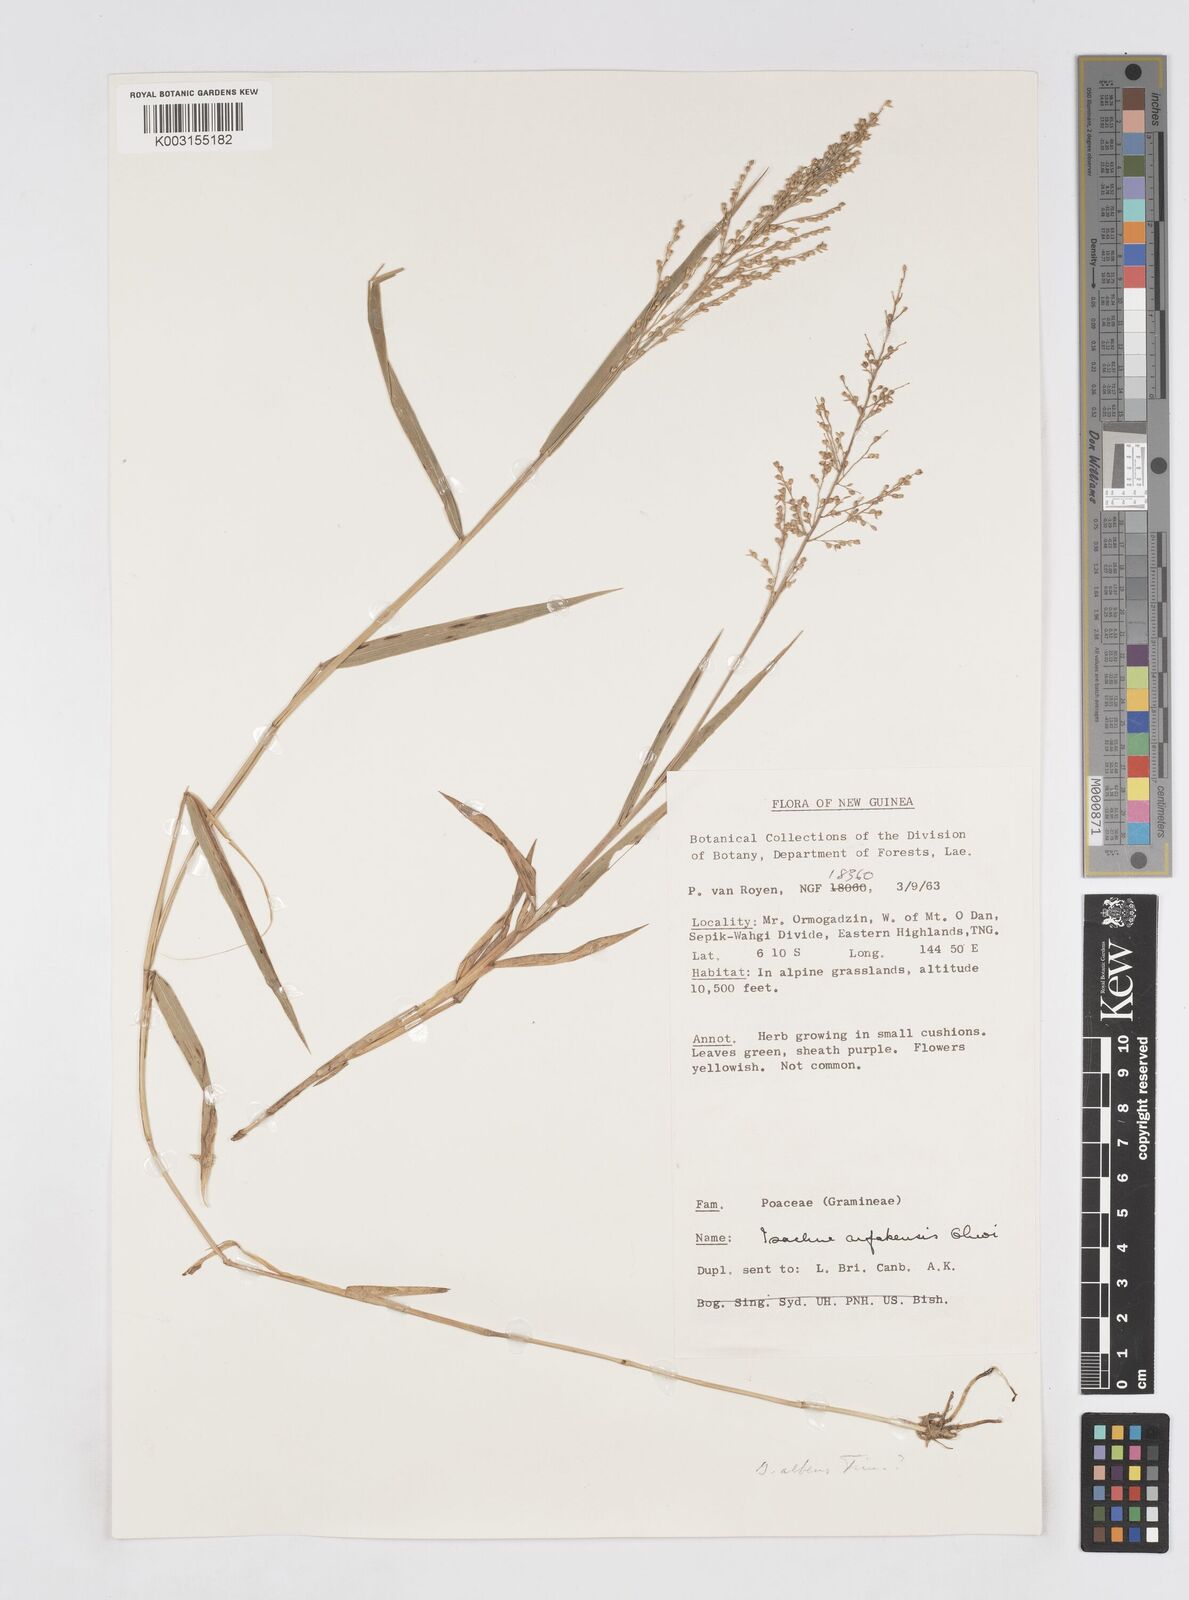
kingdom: Plantae
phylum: Tracheophyta
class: Liliopsida
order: Poales
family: Poaceae
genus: Isachne
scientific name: Isachne arfakensis
